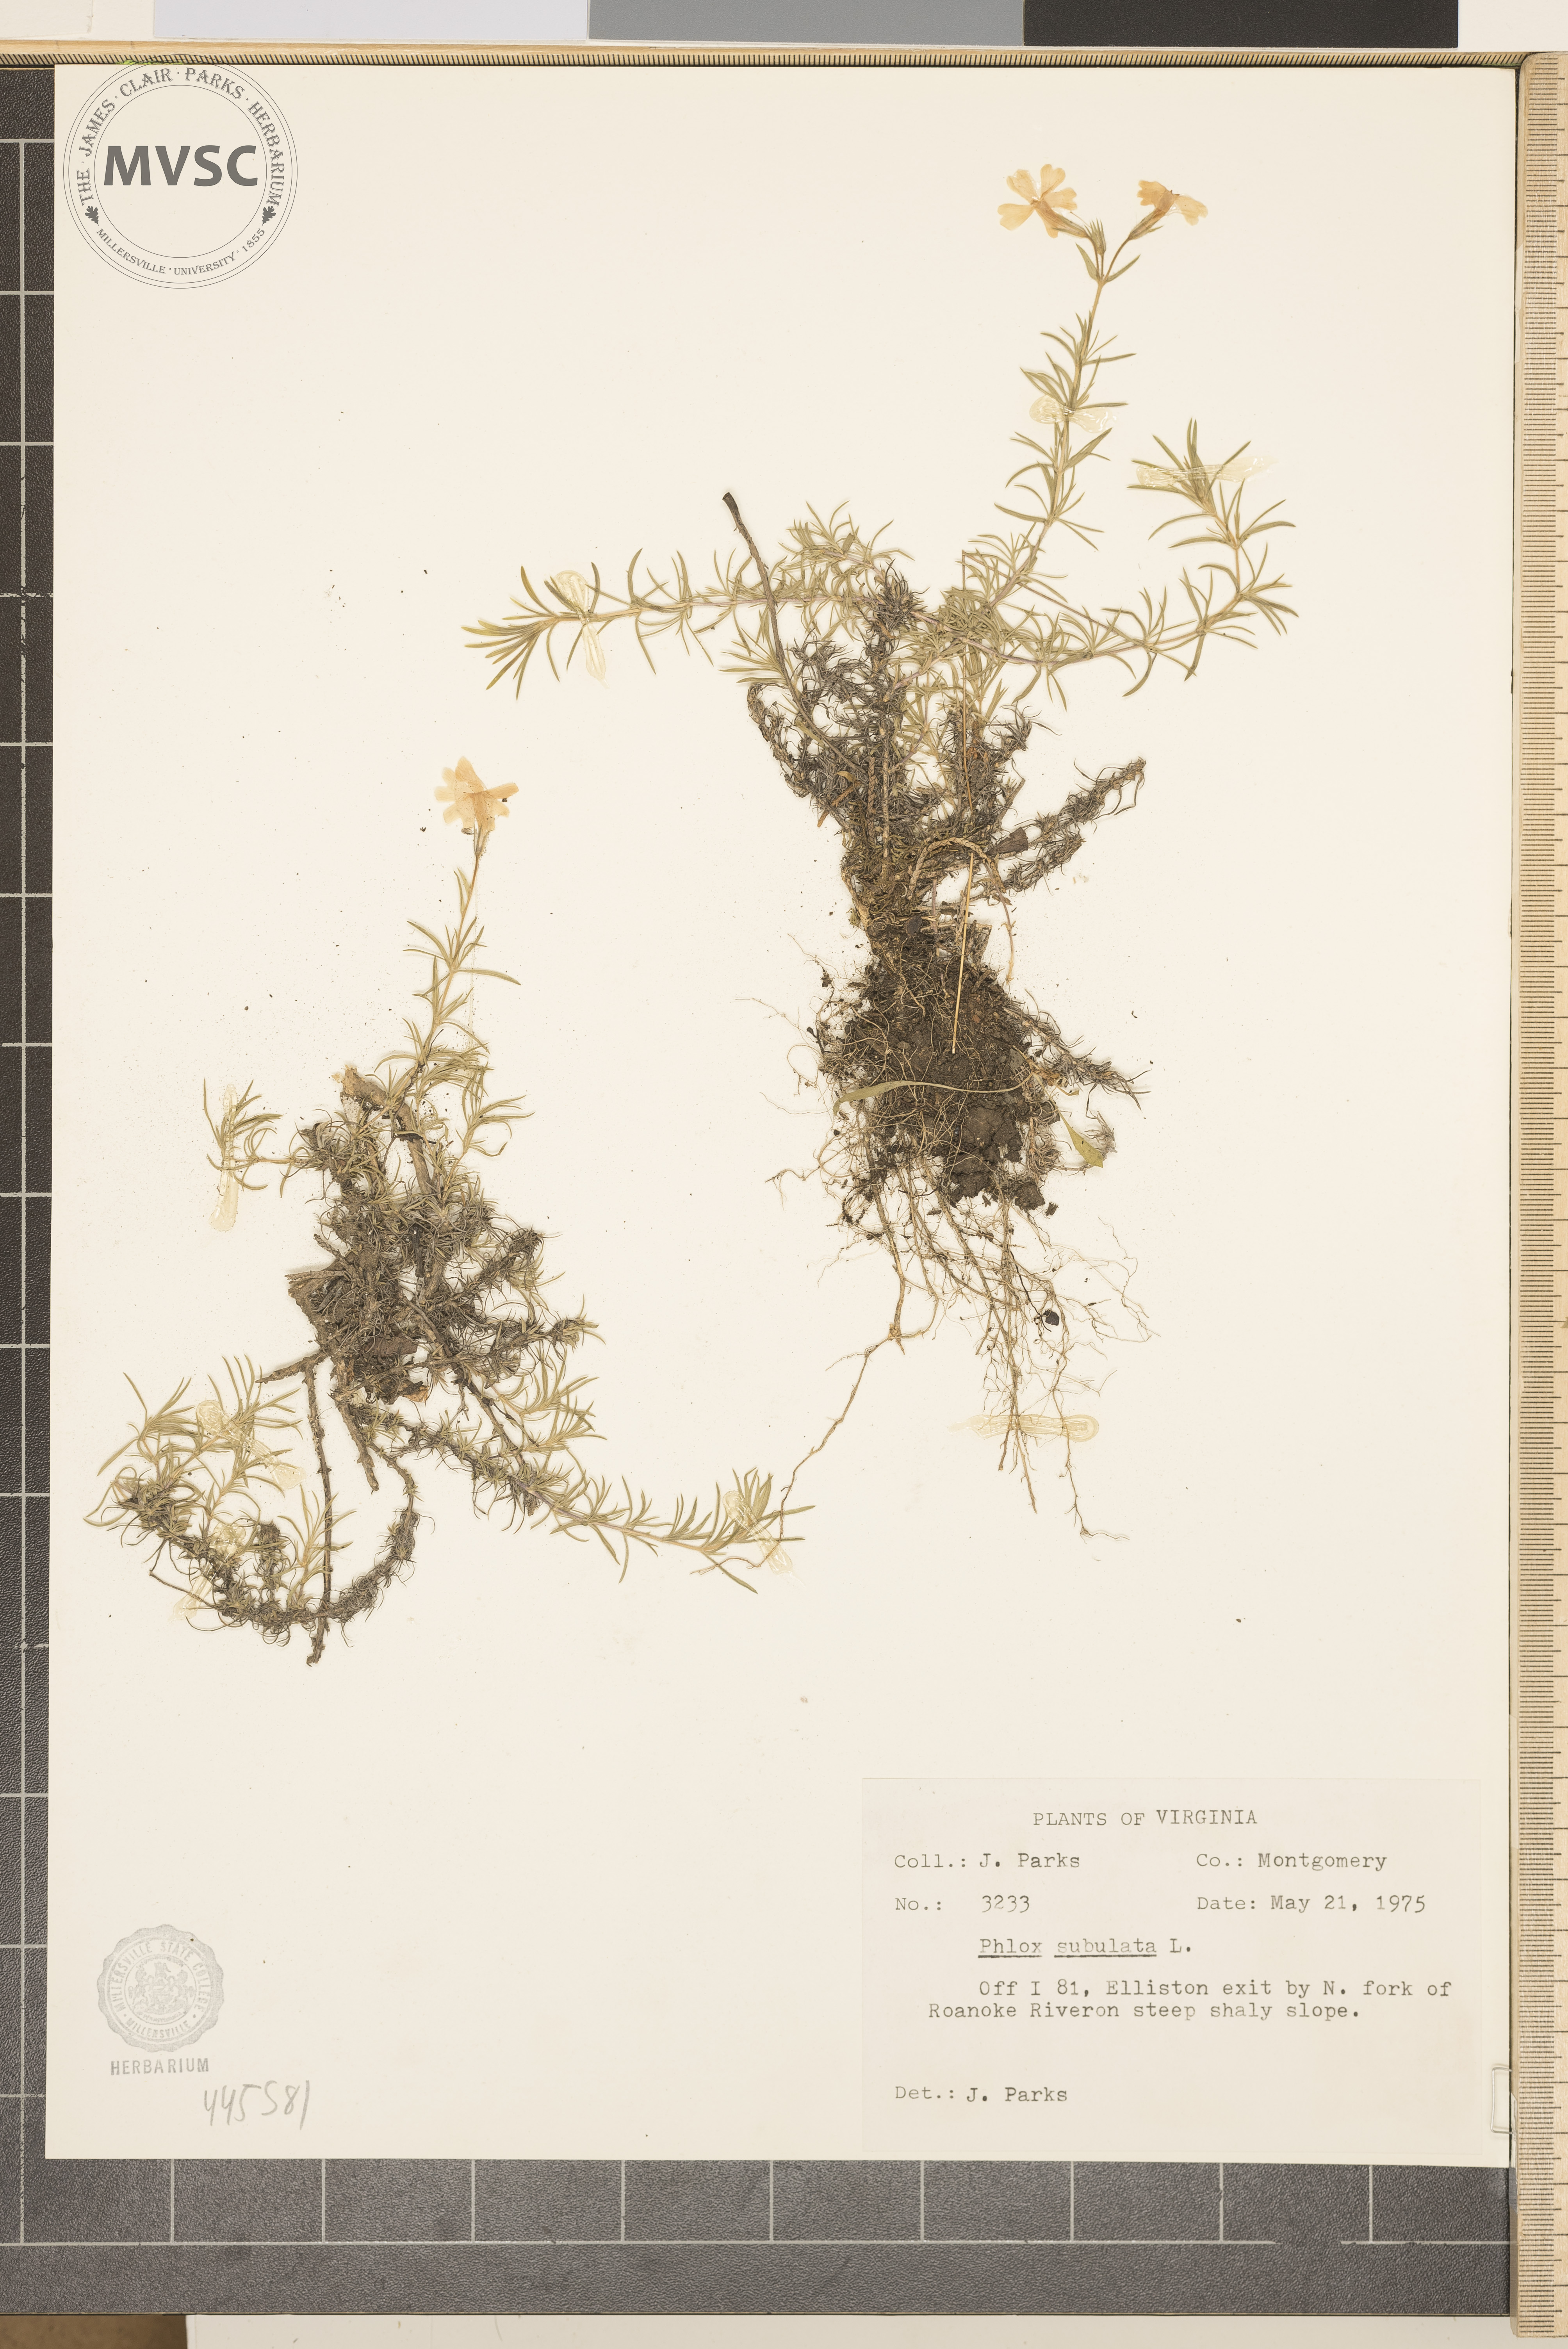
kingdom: Plantae
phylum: Tracheophyta
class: Magnoliopsida
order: Ericales
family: Polemoniaceae
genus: Phlox
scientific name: Phlox subulata
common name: Moss phlox
